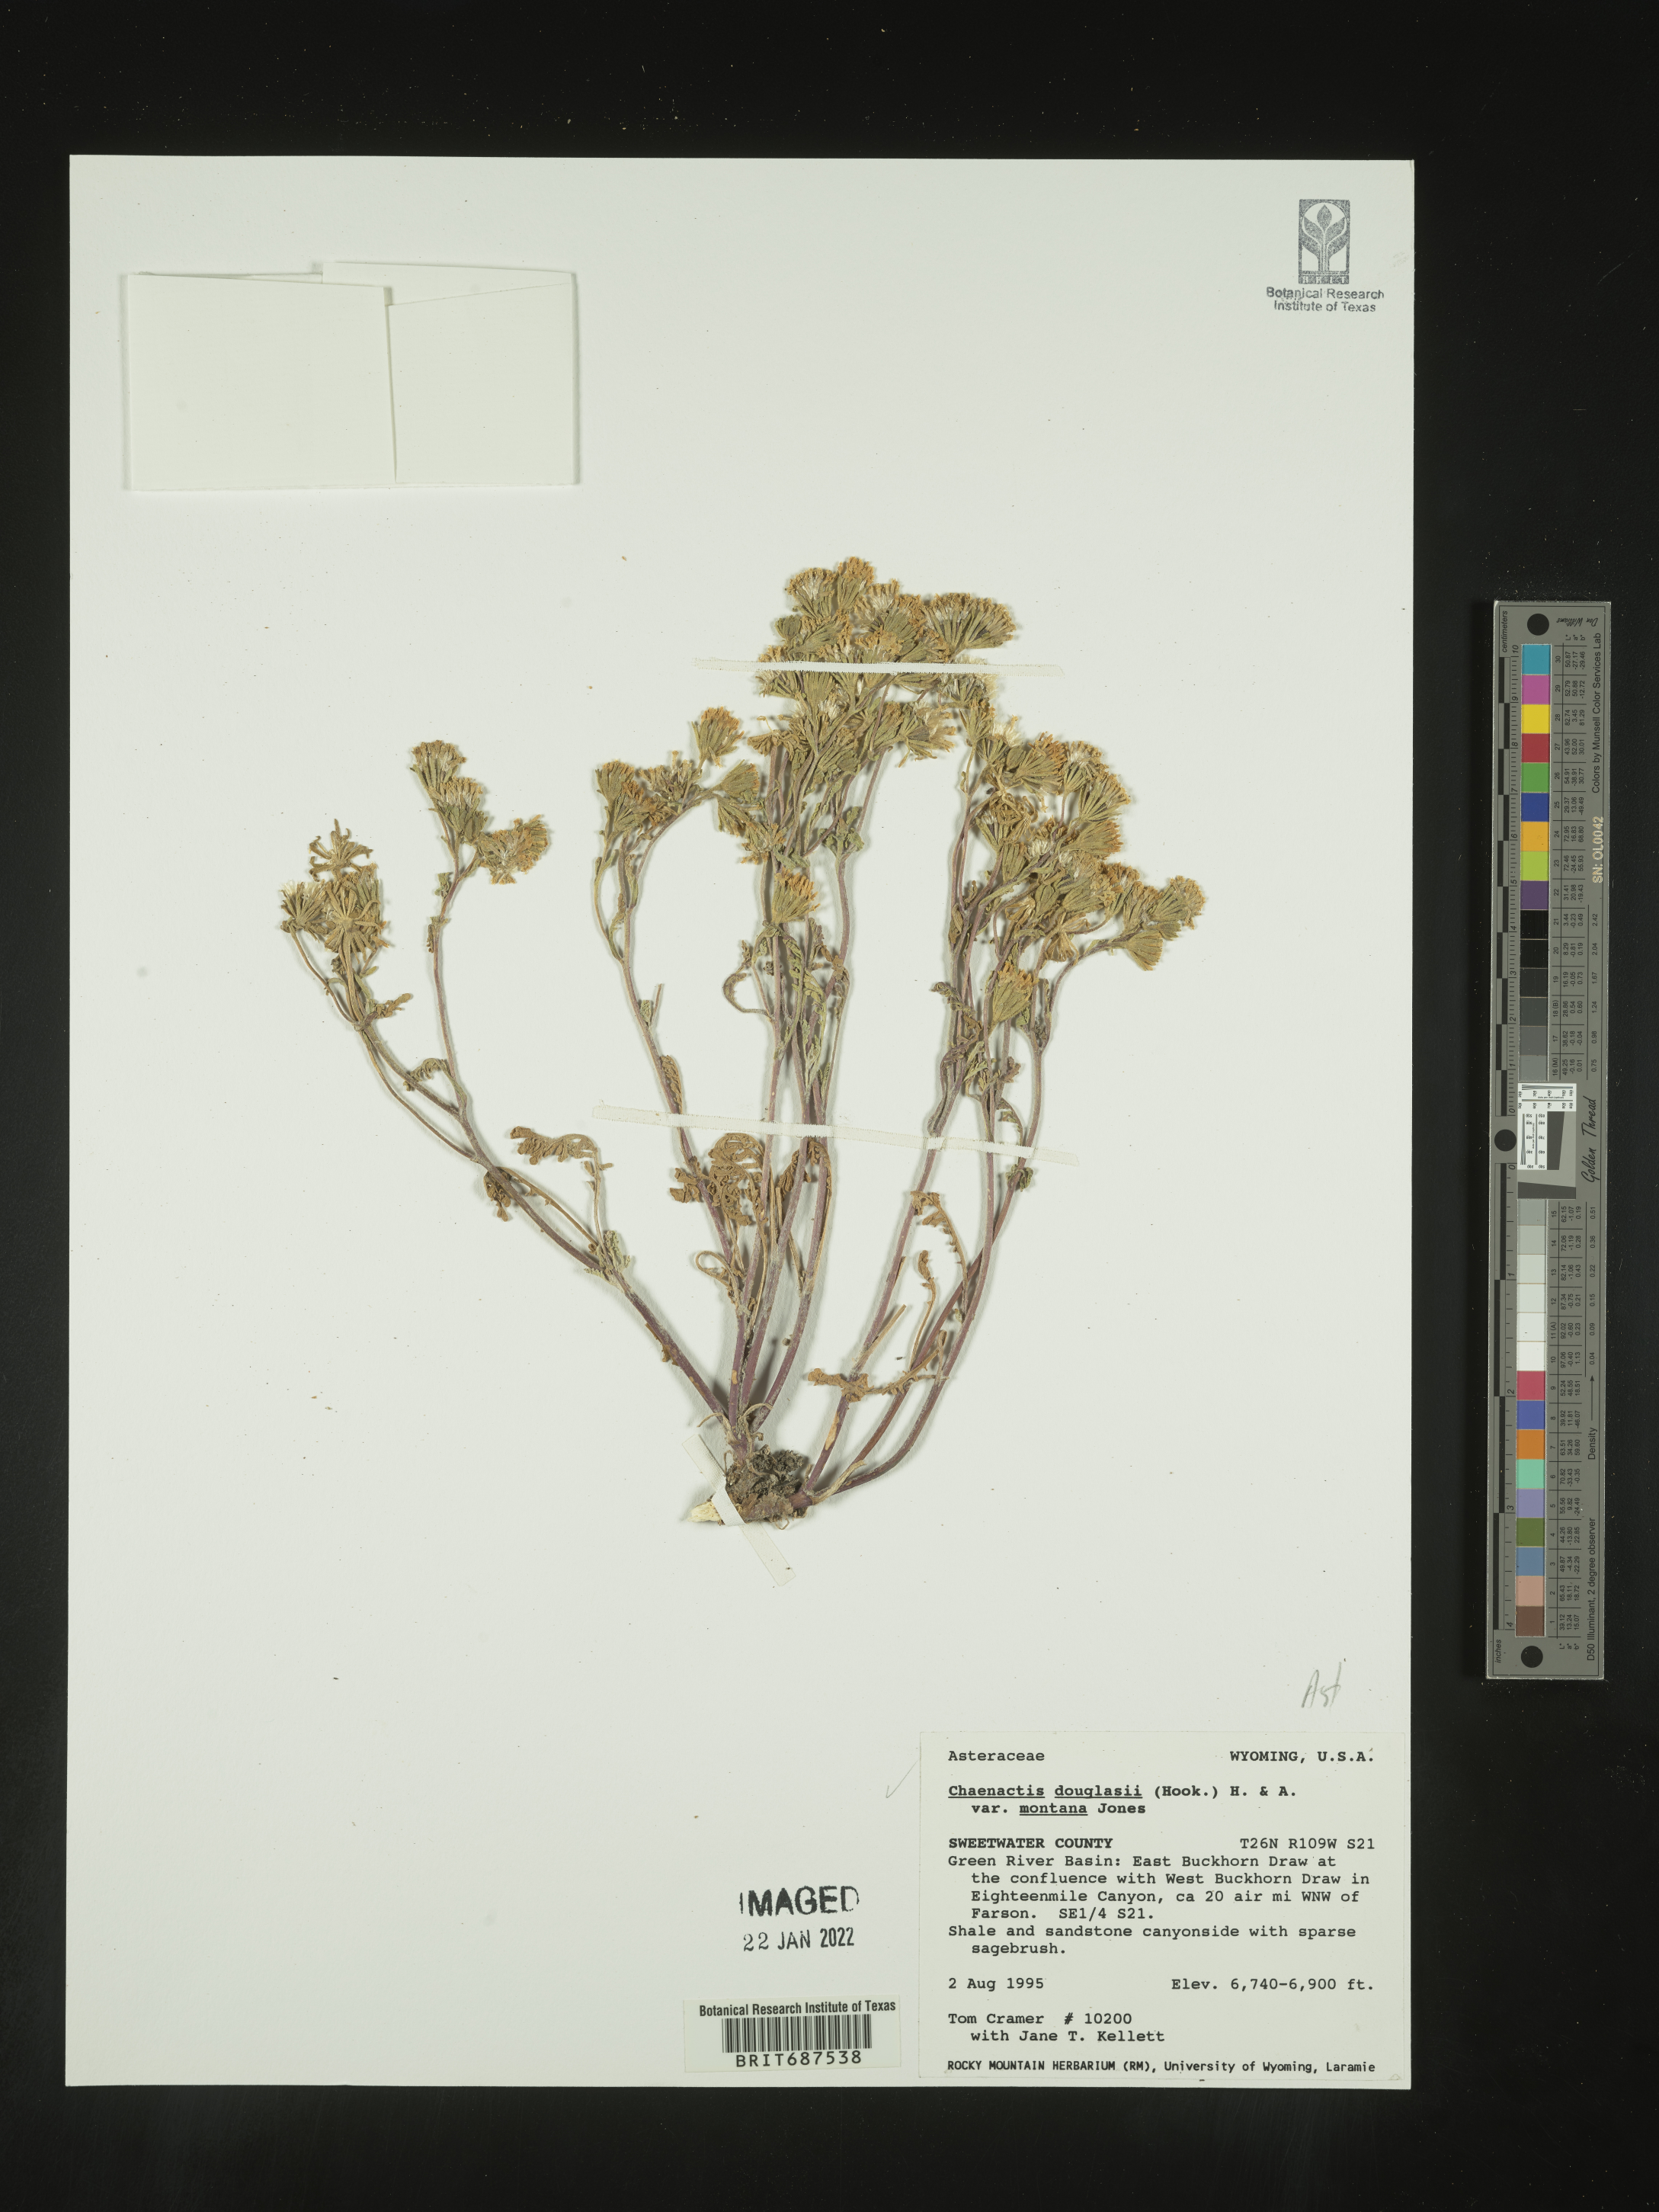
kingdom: Plantae
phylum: Tracheophyta
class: Magnoliopsida
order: Asterales
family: Asteraceae
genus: Chaenactis
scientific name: Chaenactis douglasii
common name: Hoary pincushion
